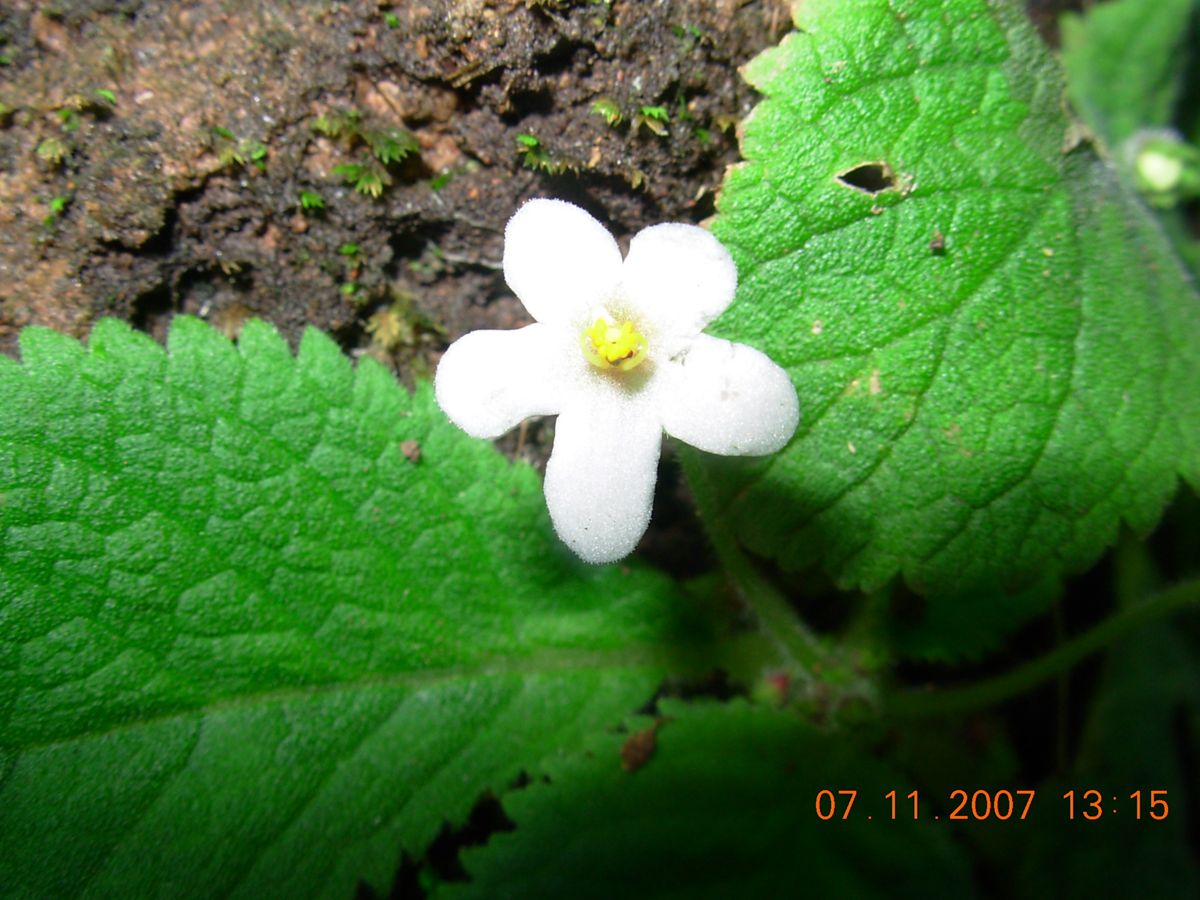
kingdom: Plantae
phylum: Tracheophyta
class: Magnoliopsida
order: Lamiales
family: Gesneriaceae
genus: Amalophyllon
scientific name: Amalophyllon repens
